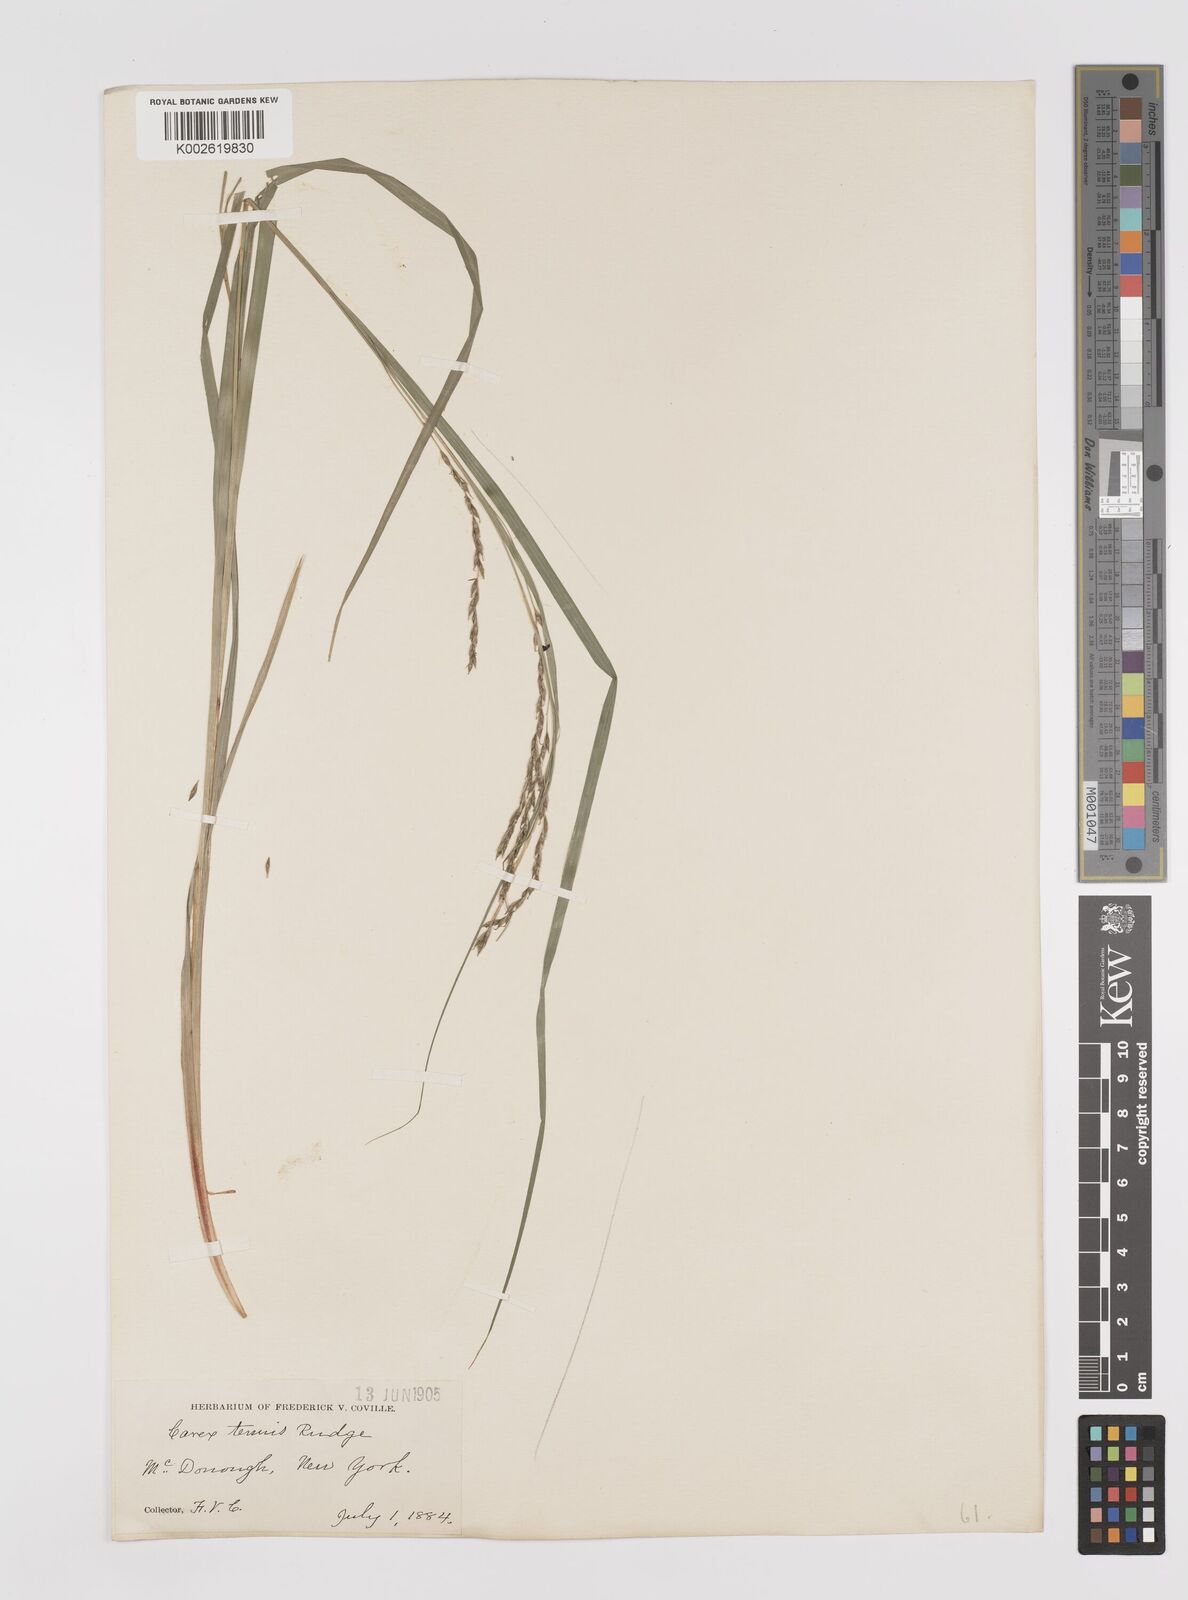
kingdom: Plantae
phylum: Tracheophyta
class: Liliopsida
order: Poales
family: Cyperaceae
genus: Carex
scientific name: Carex debilis
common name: White-edge sedge
